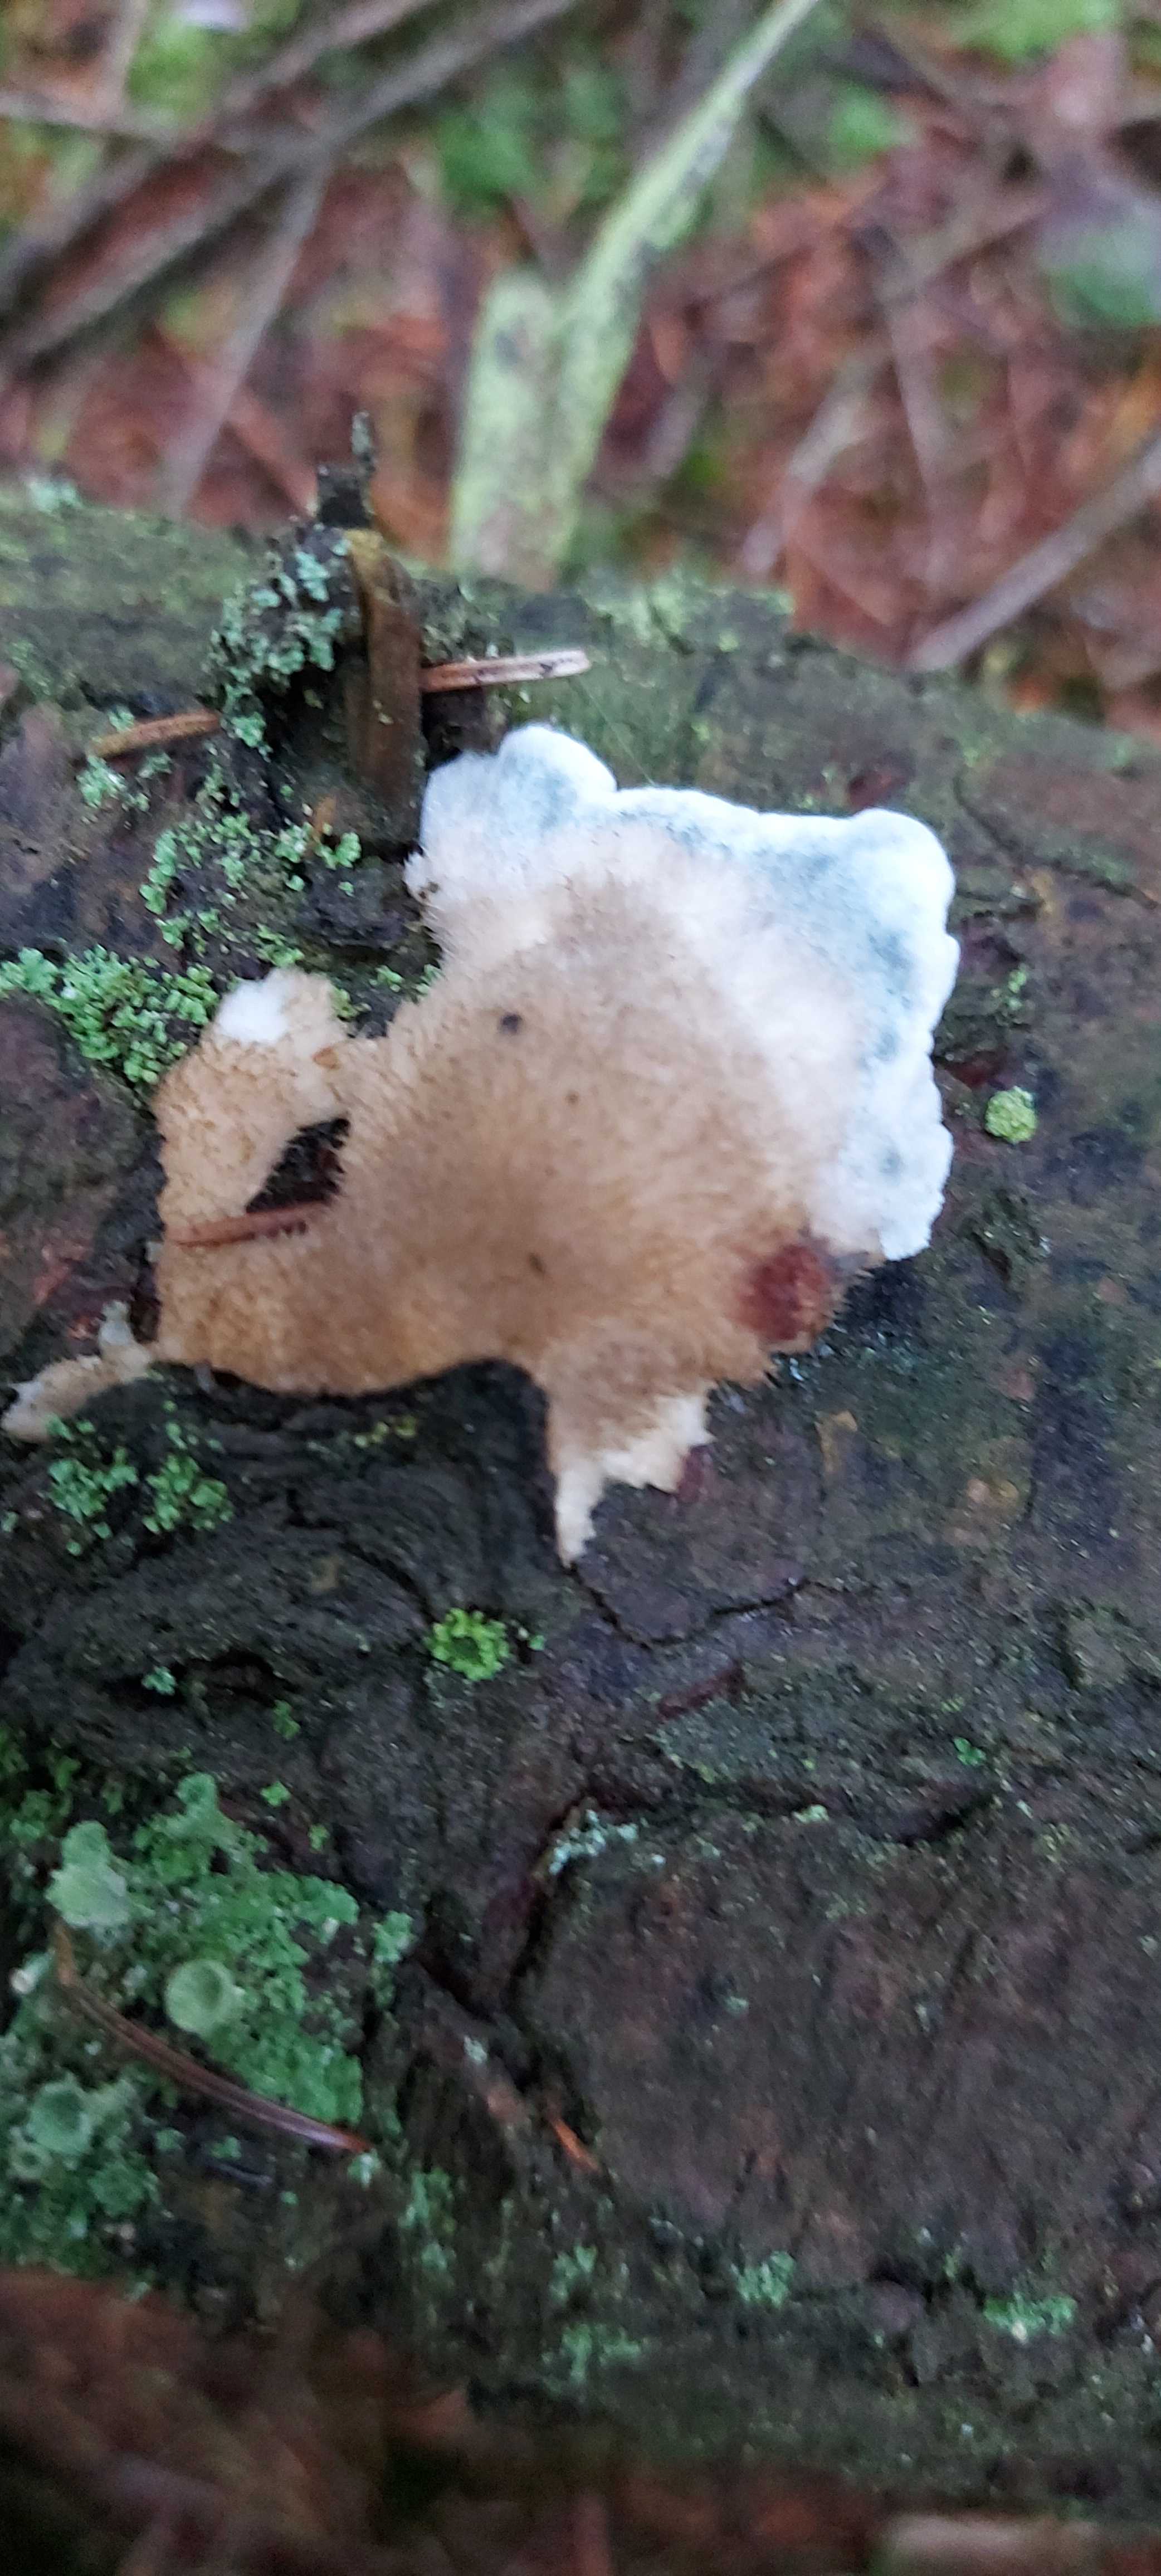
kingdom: Fungi
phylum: Basidiomycota
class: Agaricomycetes
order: Polyporales
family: Polyporaceae
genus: Cyanosporus
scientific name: Cyanosporus caesius
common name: blålig kødporesvamp
